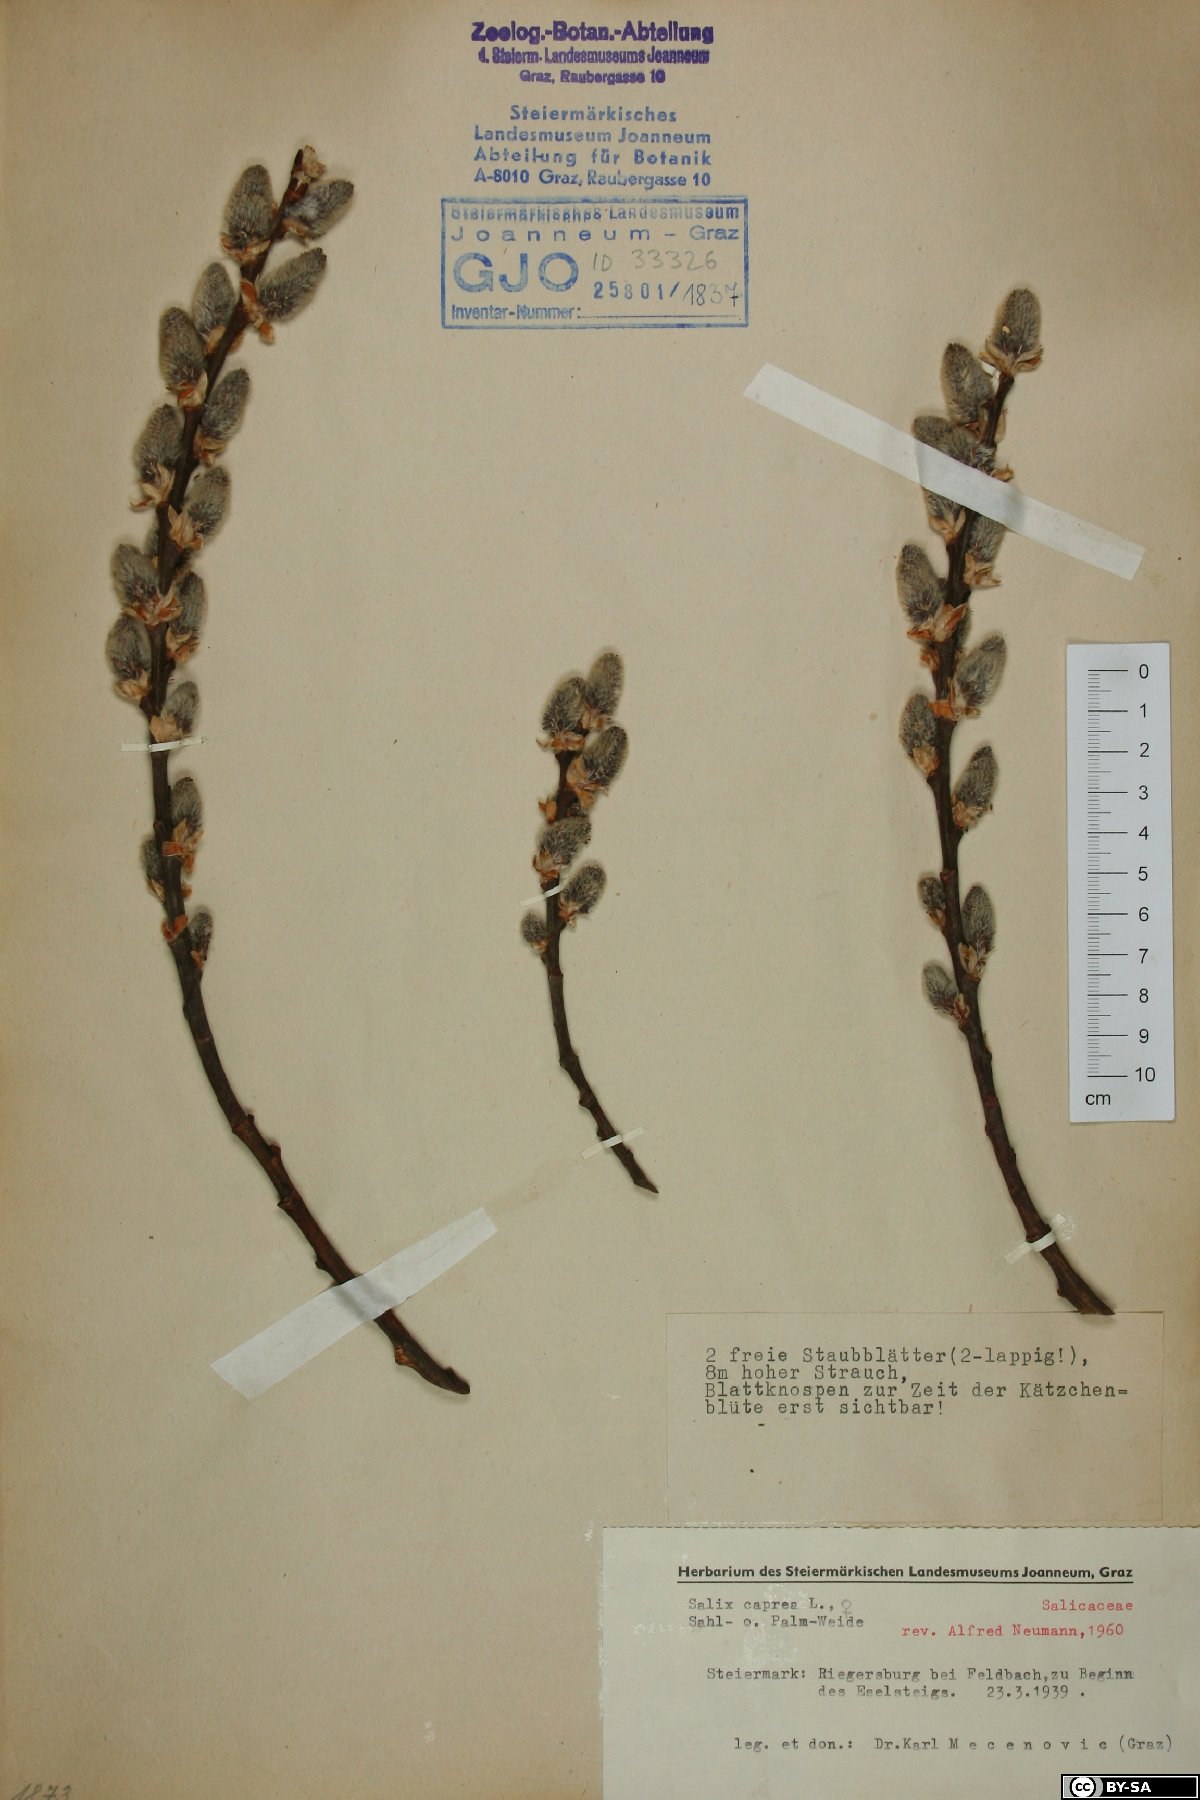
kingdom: Plantae
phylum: Tracheophyta
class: Magnoliopsida
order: Malpighiales
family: Salicaceae
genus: Salix
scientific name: Salix caprea
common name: Goat willow
